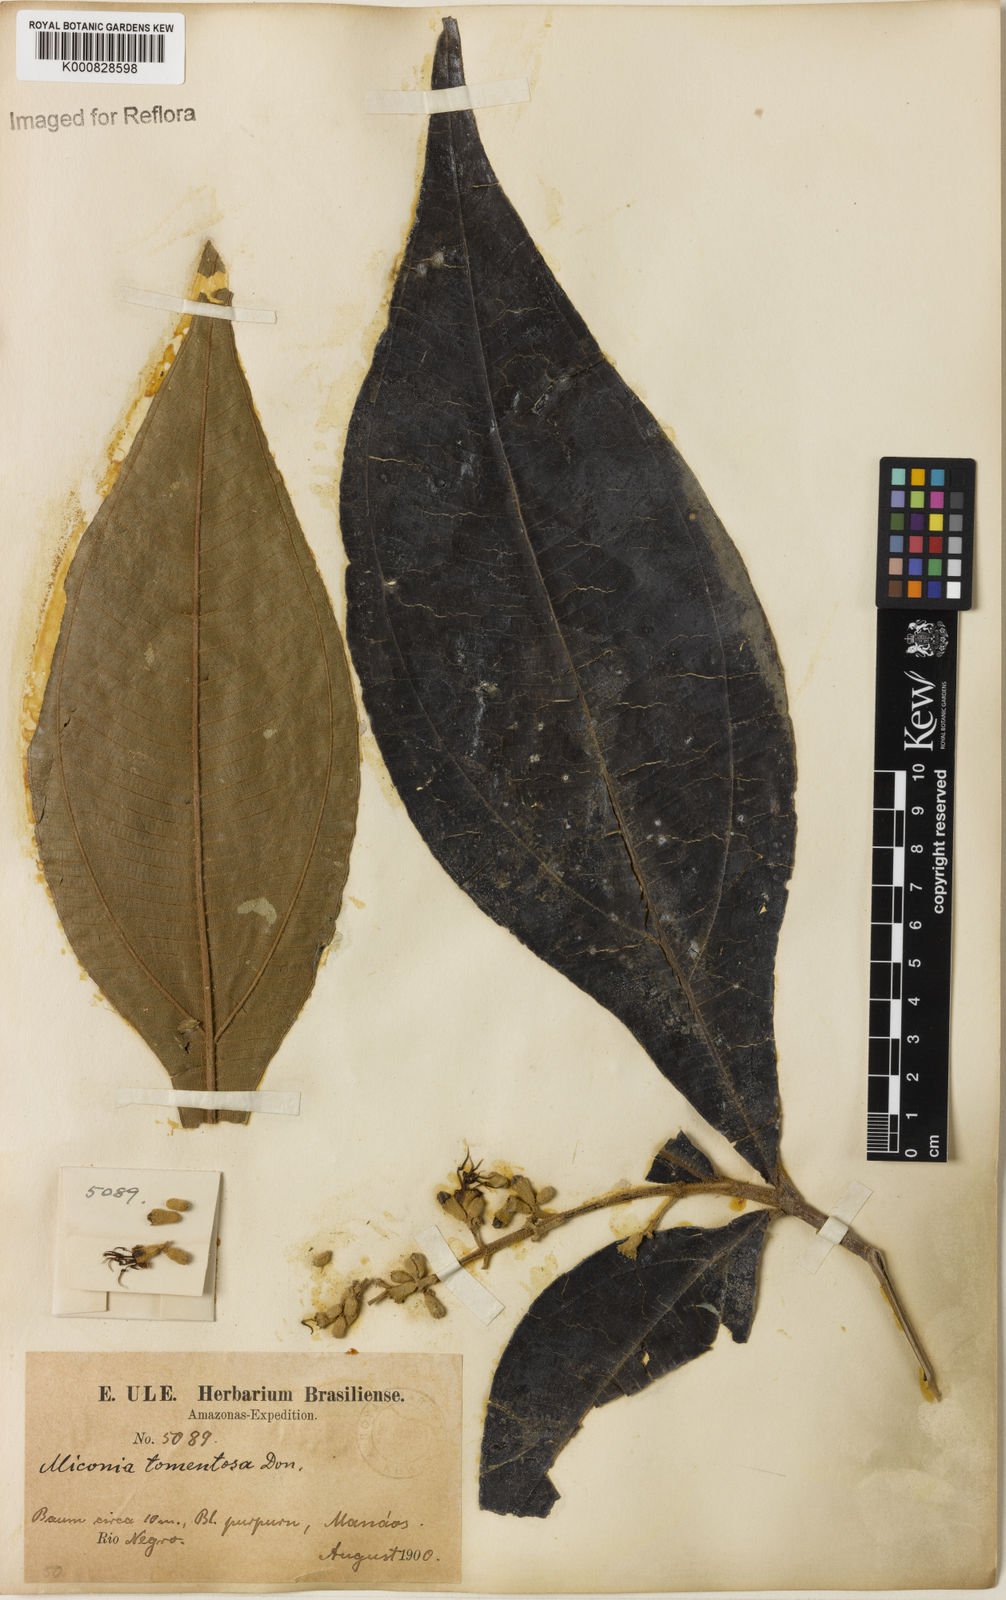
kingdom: Plantae
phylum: Tracheophyta
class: Magnoliopsida
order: Myrtales
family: Melastomataceae
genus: Miconia
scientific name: Miconia tomentosa
